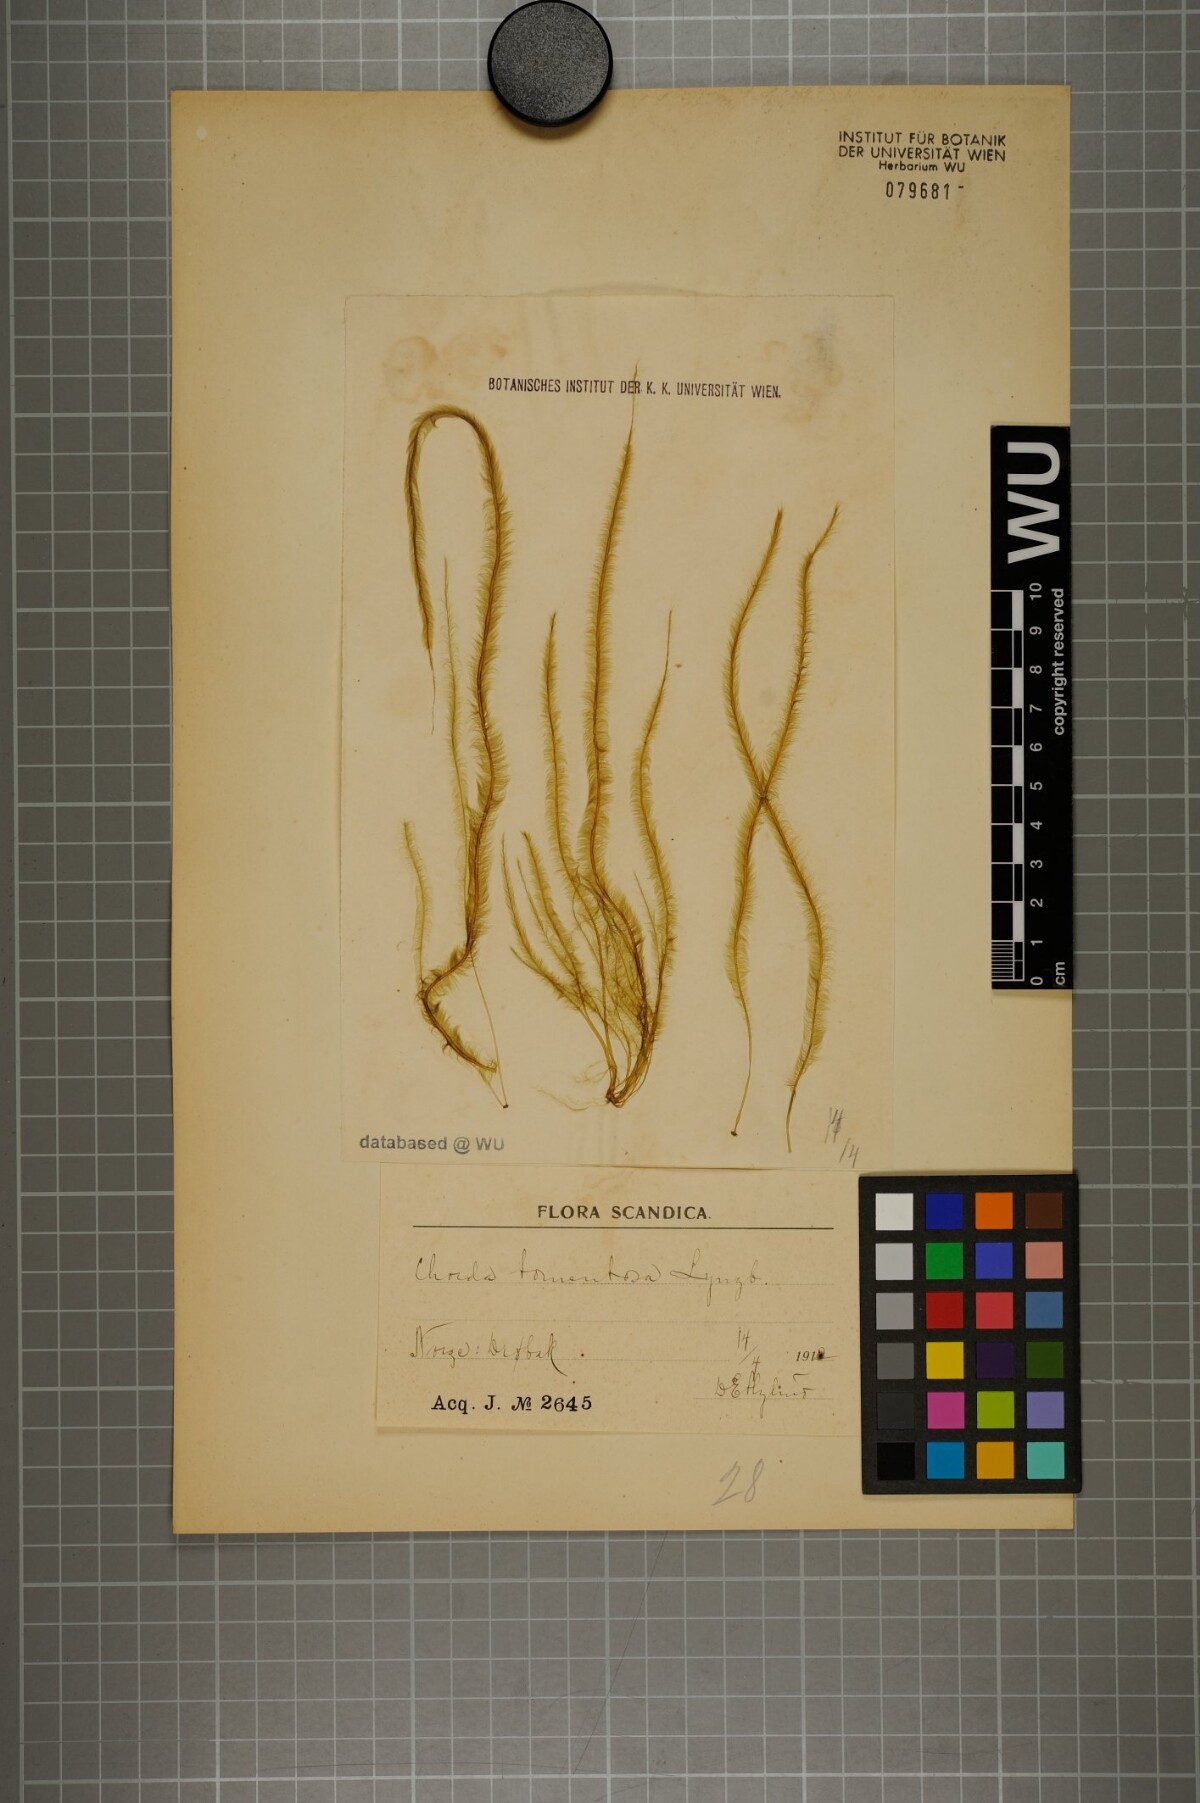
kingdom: Chromista
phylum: Ochrophyta
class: Phaeophyceae
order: Tilopteridales
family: Halosiphonaceae
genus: Halosiphon
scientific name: Halosiphon tomentosus
